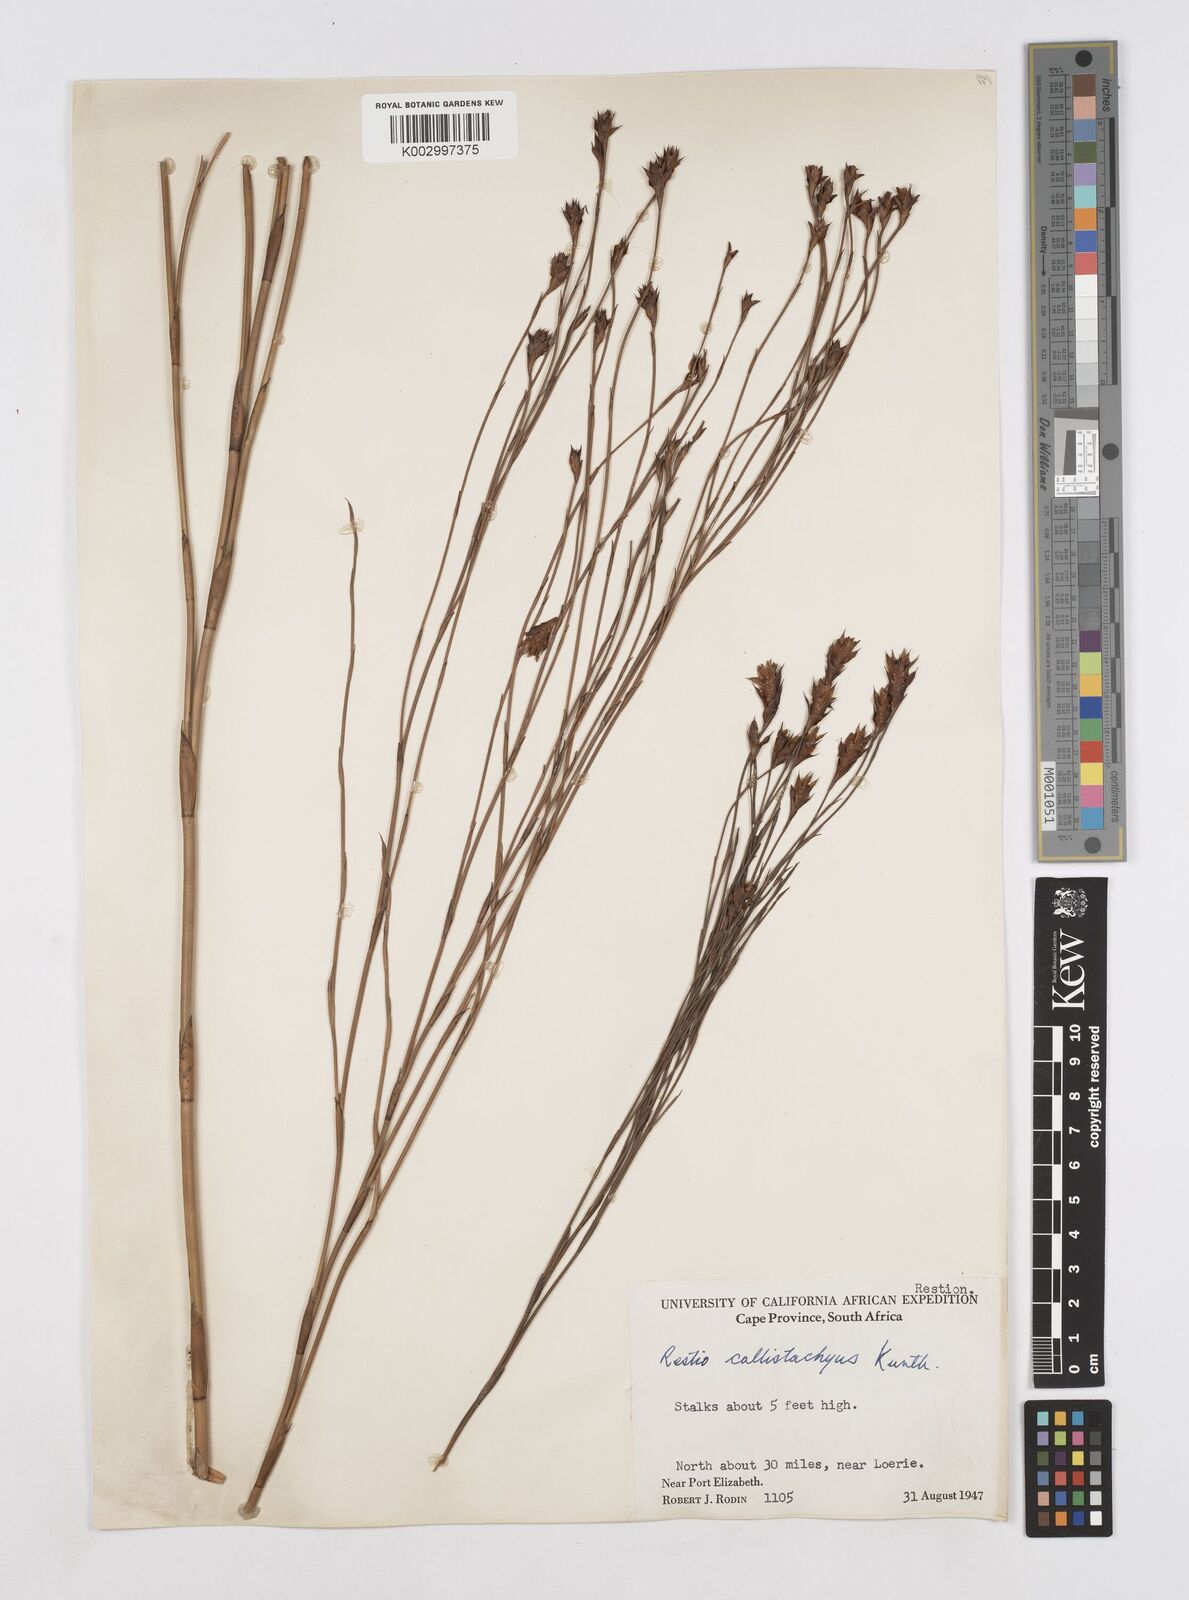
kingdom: Plantae
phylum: Tracheophyta
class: Liliopsida
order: Poales
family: Restionaceae
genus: Platycaulos
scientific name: Platycaulos callistachyus
